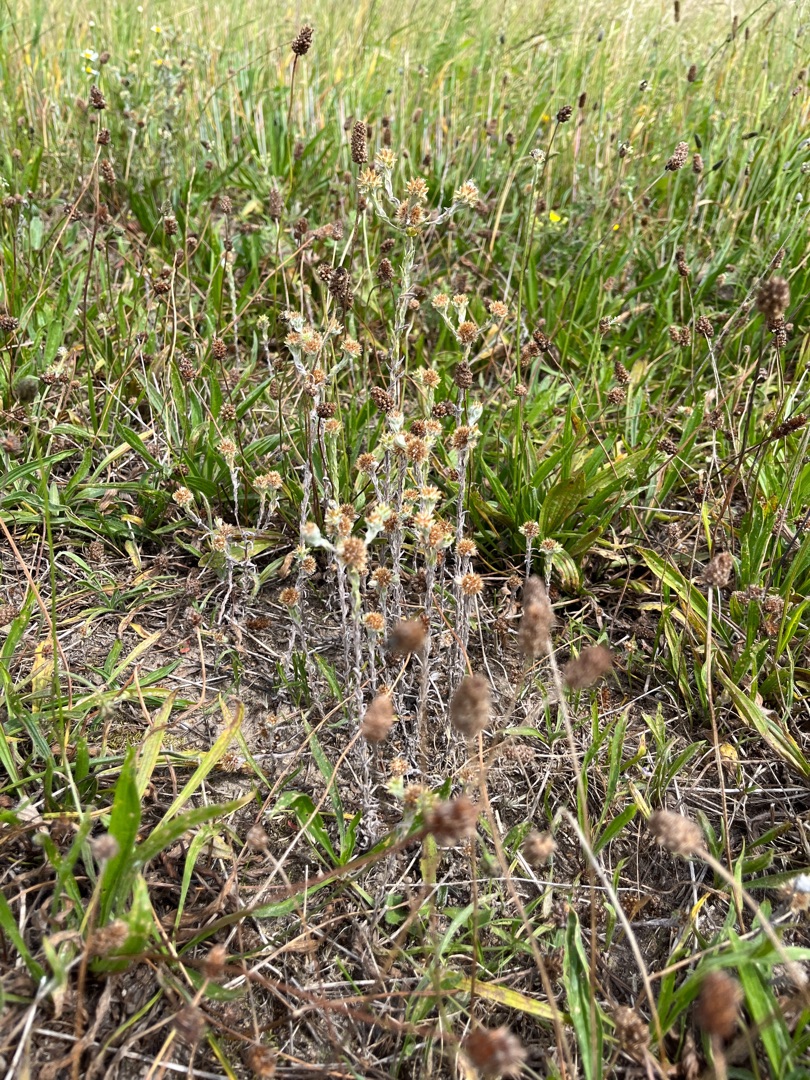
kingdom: Plantae
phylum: Tracheophyta
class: Magnoliopsida
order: Asterales
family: Asteraceae
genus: Filago
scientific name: Filago germanica
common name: Kugle-museurt
